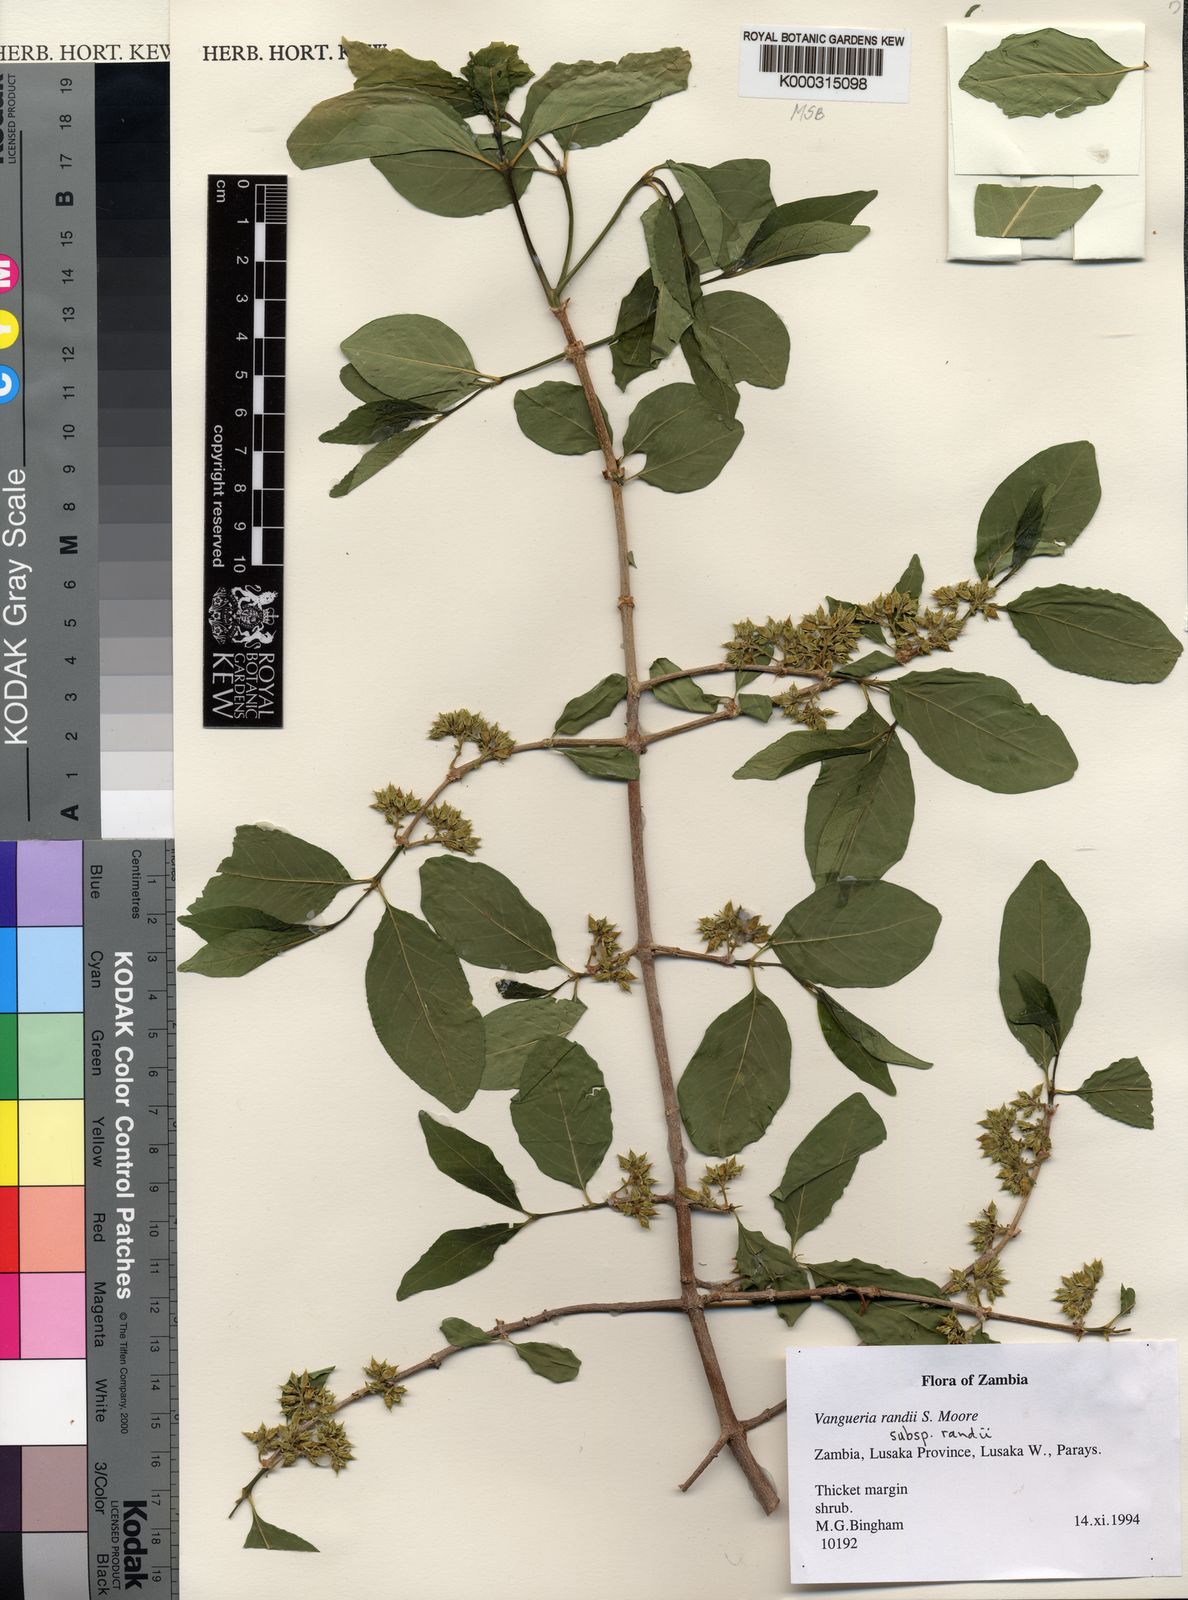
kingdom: Plantae
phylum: Tracheophyta
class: Magnoliopsida
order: Gentianales
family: Rubiaceae
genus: Vangueria
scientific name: Vangueria randii
